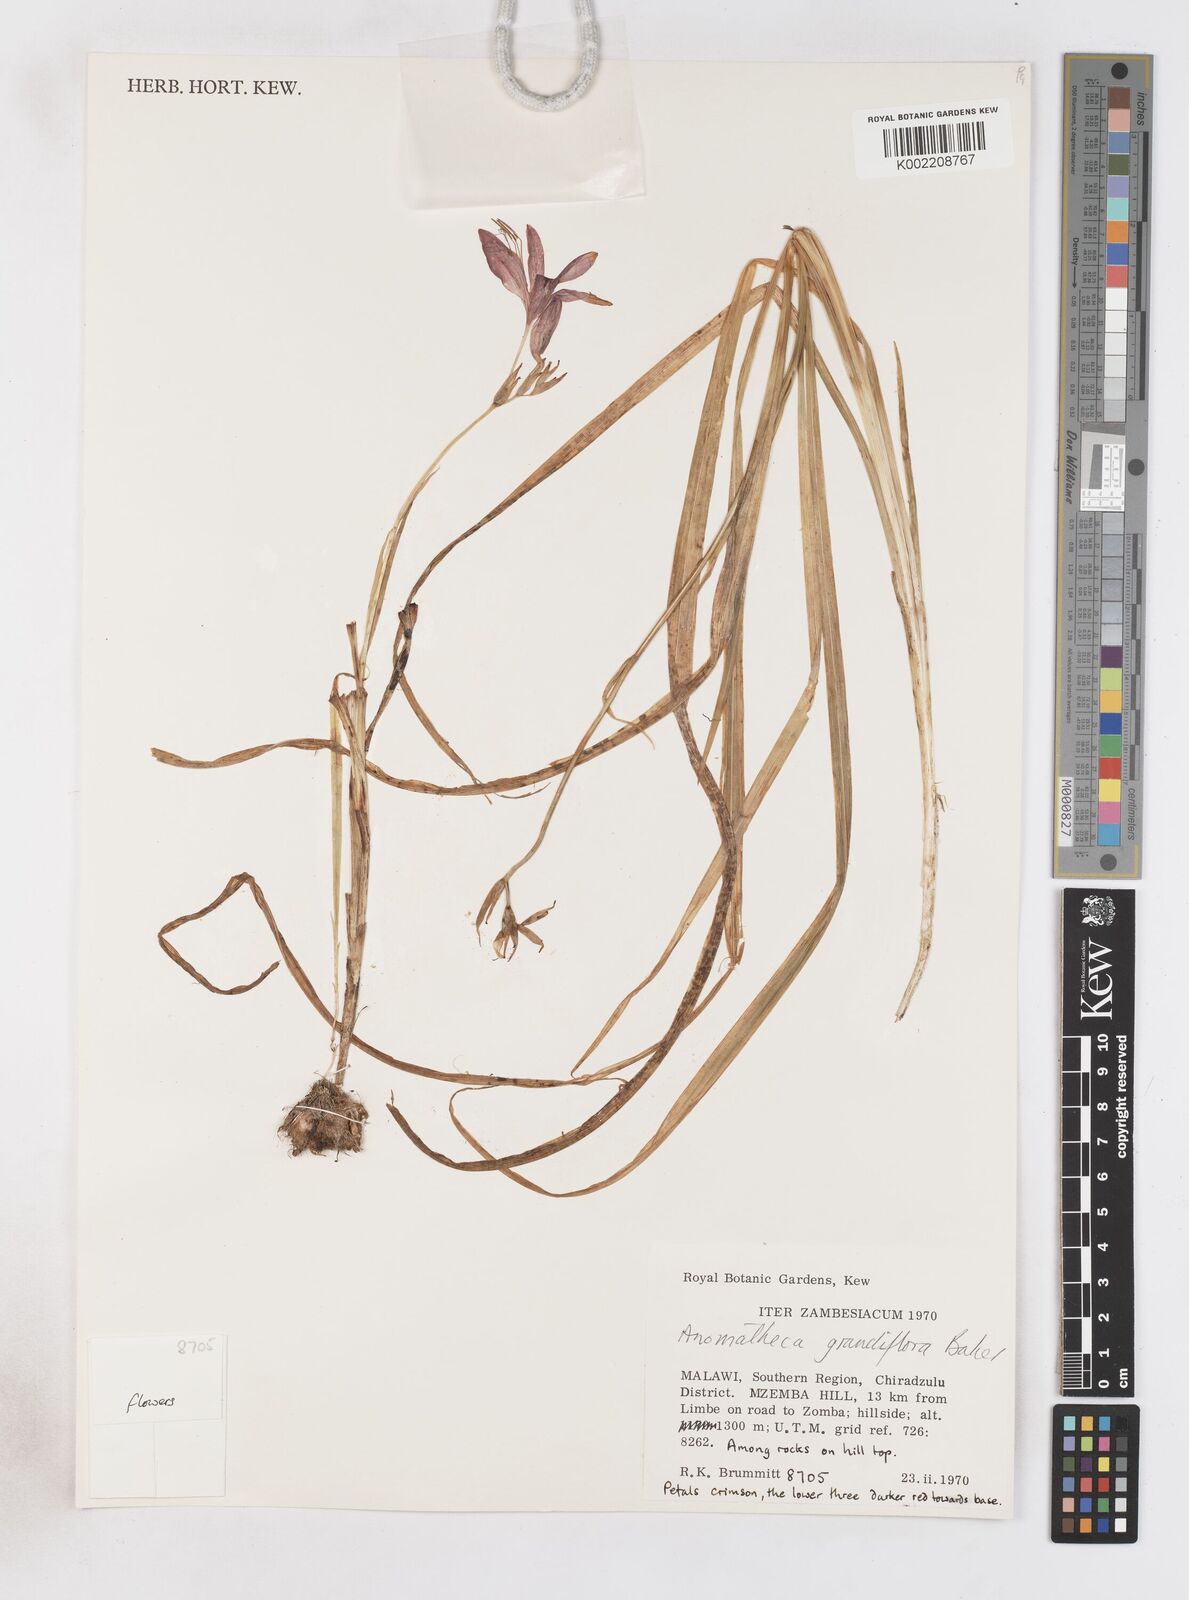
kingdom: Plantae
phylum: Tracheophyta
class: Liliopsida
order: Asparagales
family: Iridaceae
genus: Freesia
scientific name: Freesia grandiflora
